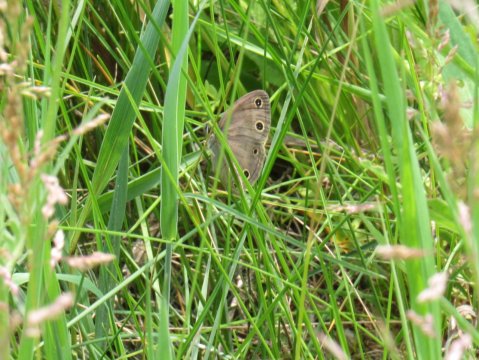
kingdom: Animalia
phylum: Arthropoda
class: Insecta
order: Lepidoptera
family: Nymphalidae
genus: Euptychia
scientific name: Euptychia cymela
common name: Little Wood Satyr
